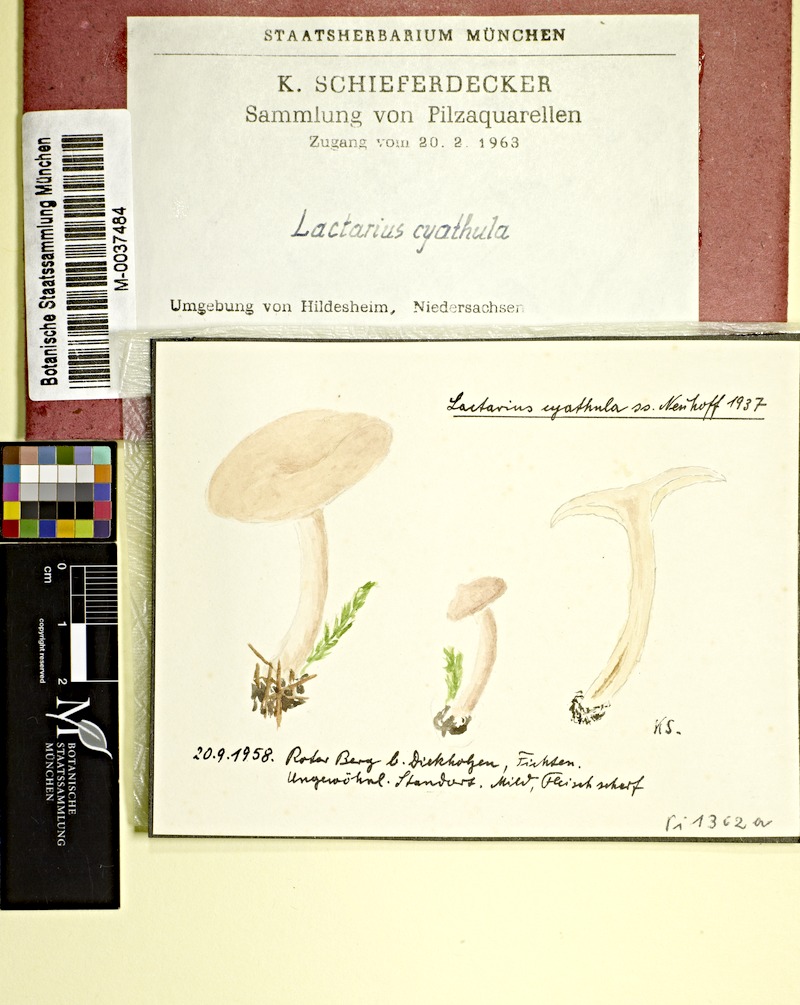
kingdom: Fungi
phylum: Basidiomycota
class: Agaricomycetes
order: Russulales
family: Russulaceae
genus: Lactarius
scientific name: Lactarius glyciosmus
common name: Coconut milkcap
